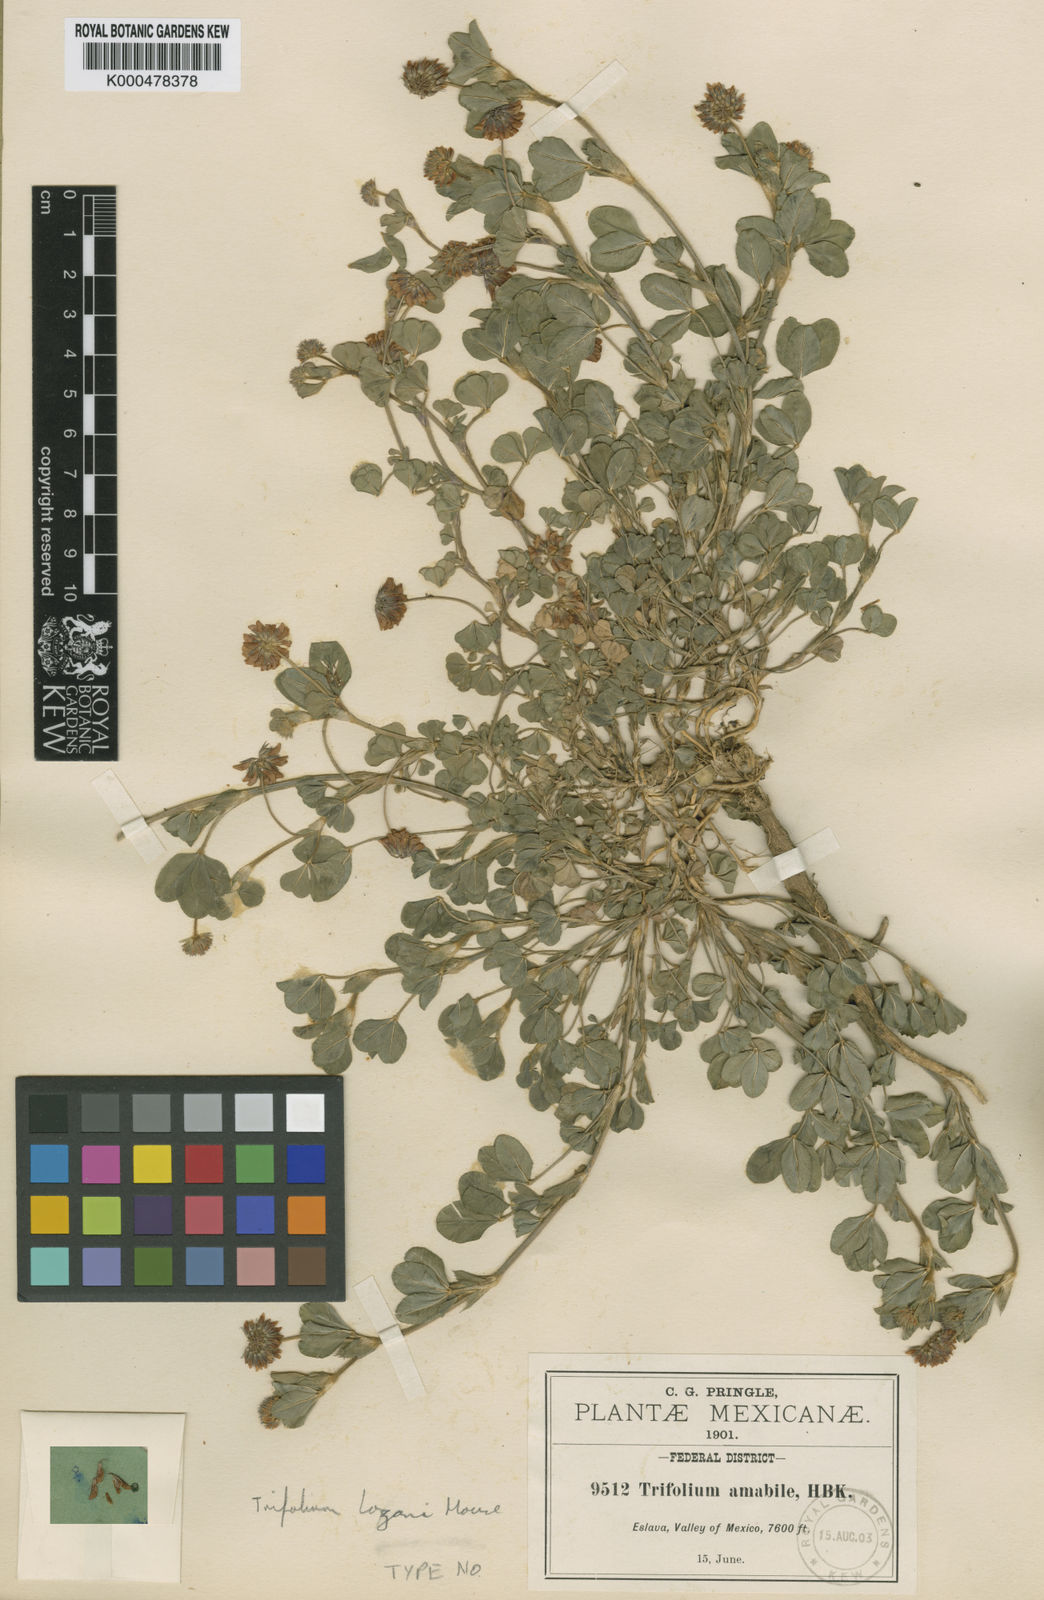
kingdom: Plantae
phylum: Tracheophyta
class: Magnoliopsida
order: Fabales
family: Fabaceae
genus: Trifolium
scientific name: Trifolium amabile
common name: Aztec clover
